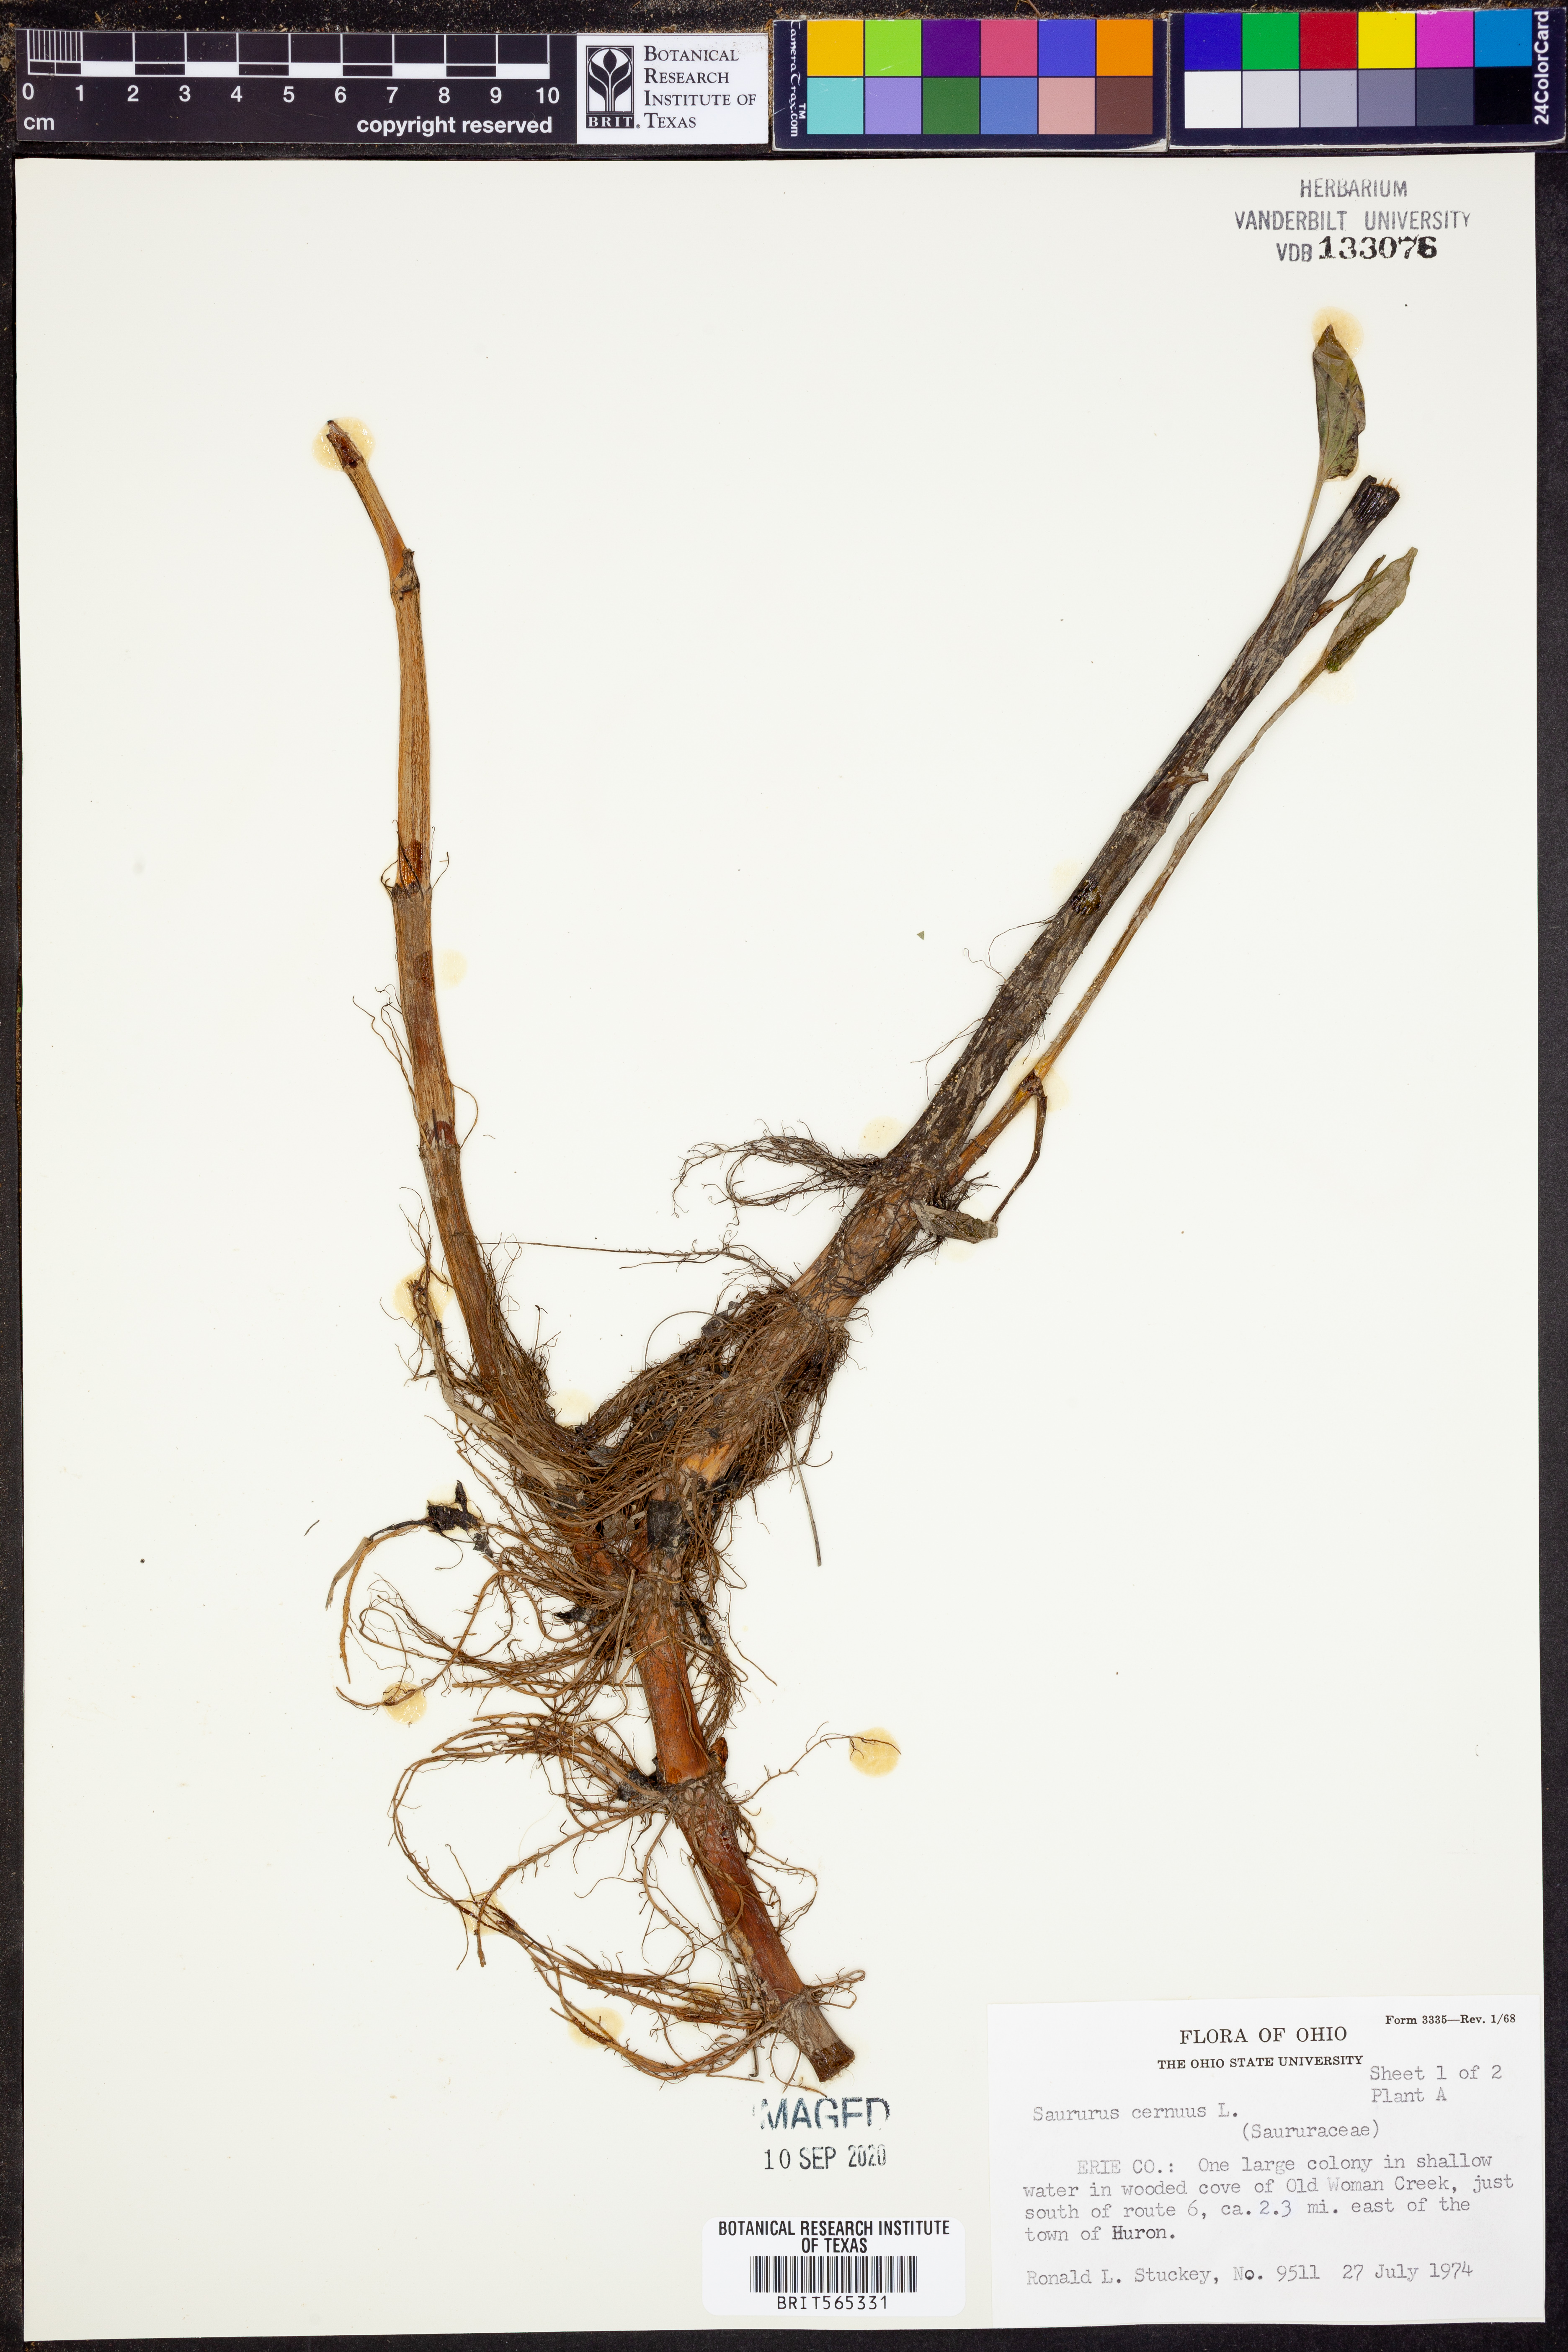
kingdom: Plantae
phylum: Tracheophyta
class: Magnoliopsida
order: Piperales
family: Saururaceae
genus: Saururus
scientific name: Saururus cernuus
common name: Lizard's-tail
